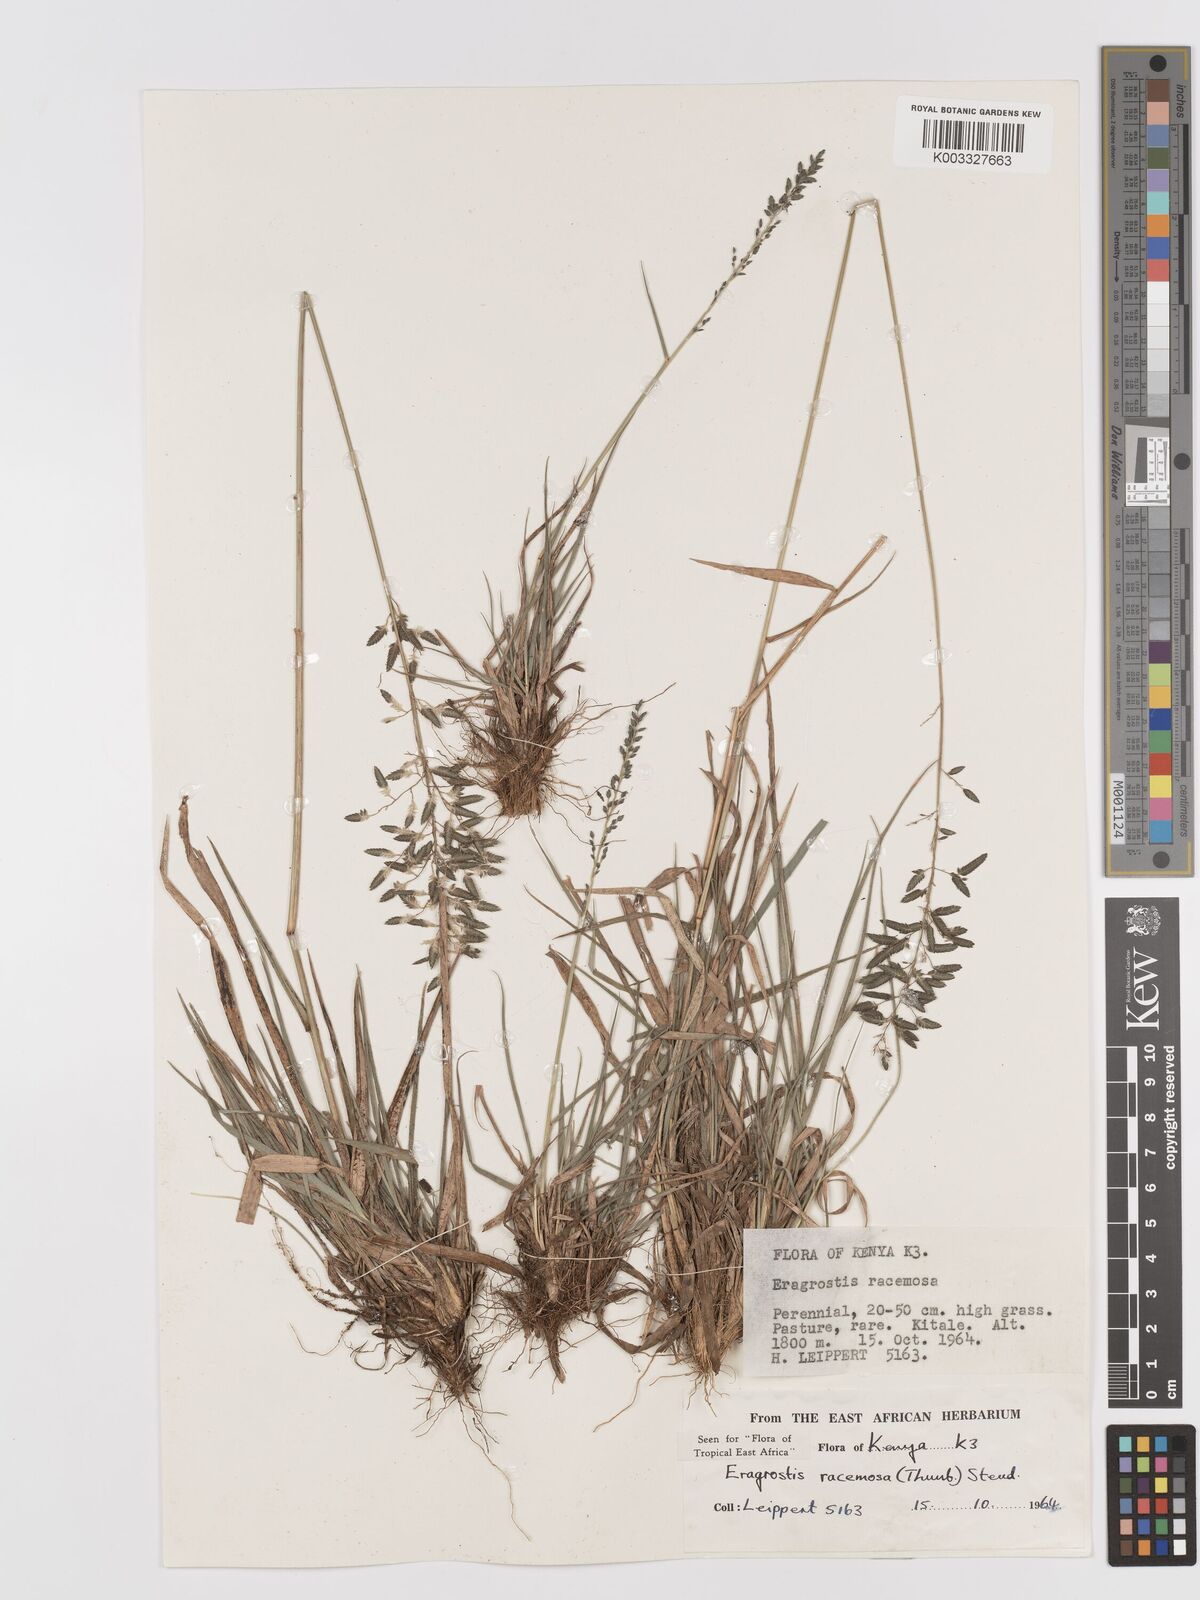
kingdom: Plantae
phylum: Tracheophyta
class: Liliopsida
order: Poales
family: Poaceae
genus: Eragrostis
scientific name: Eragrostis racemosa
